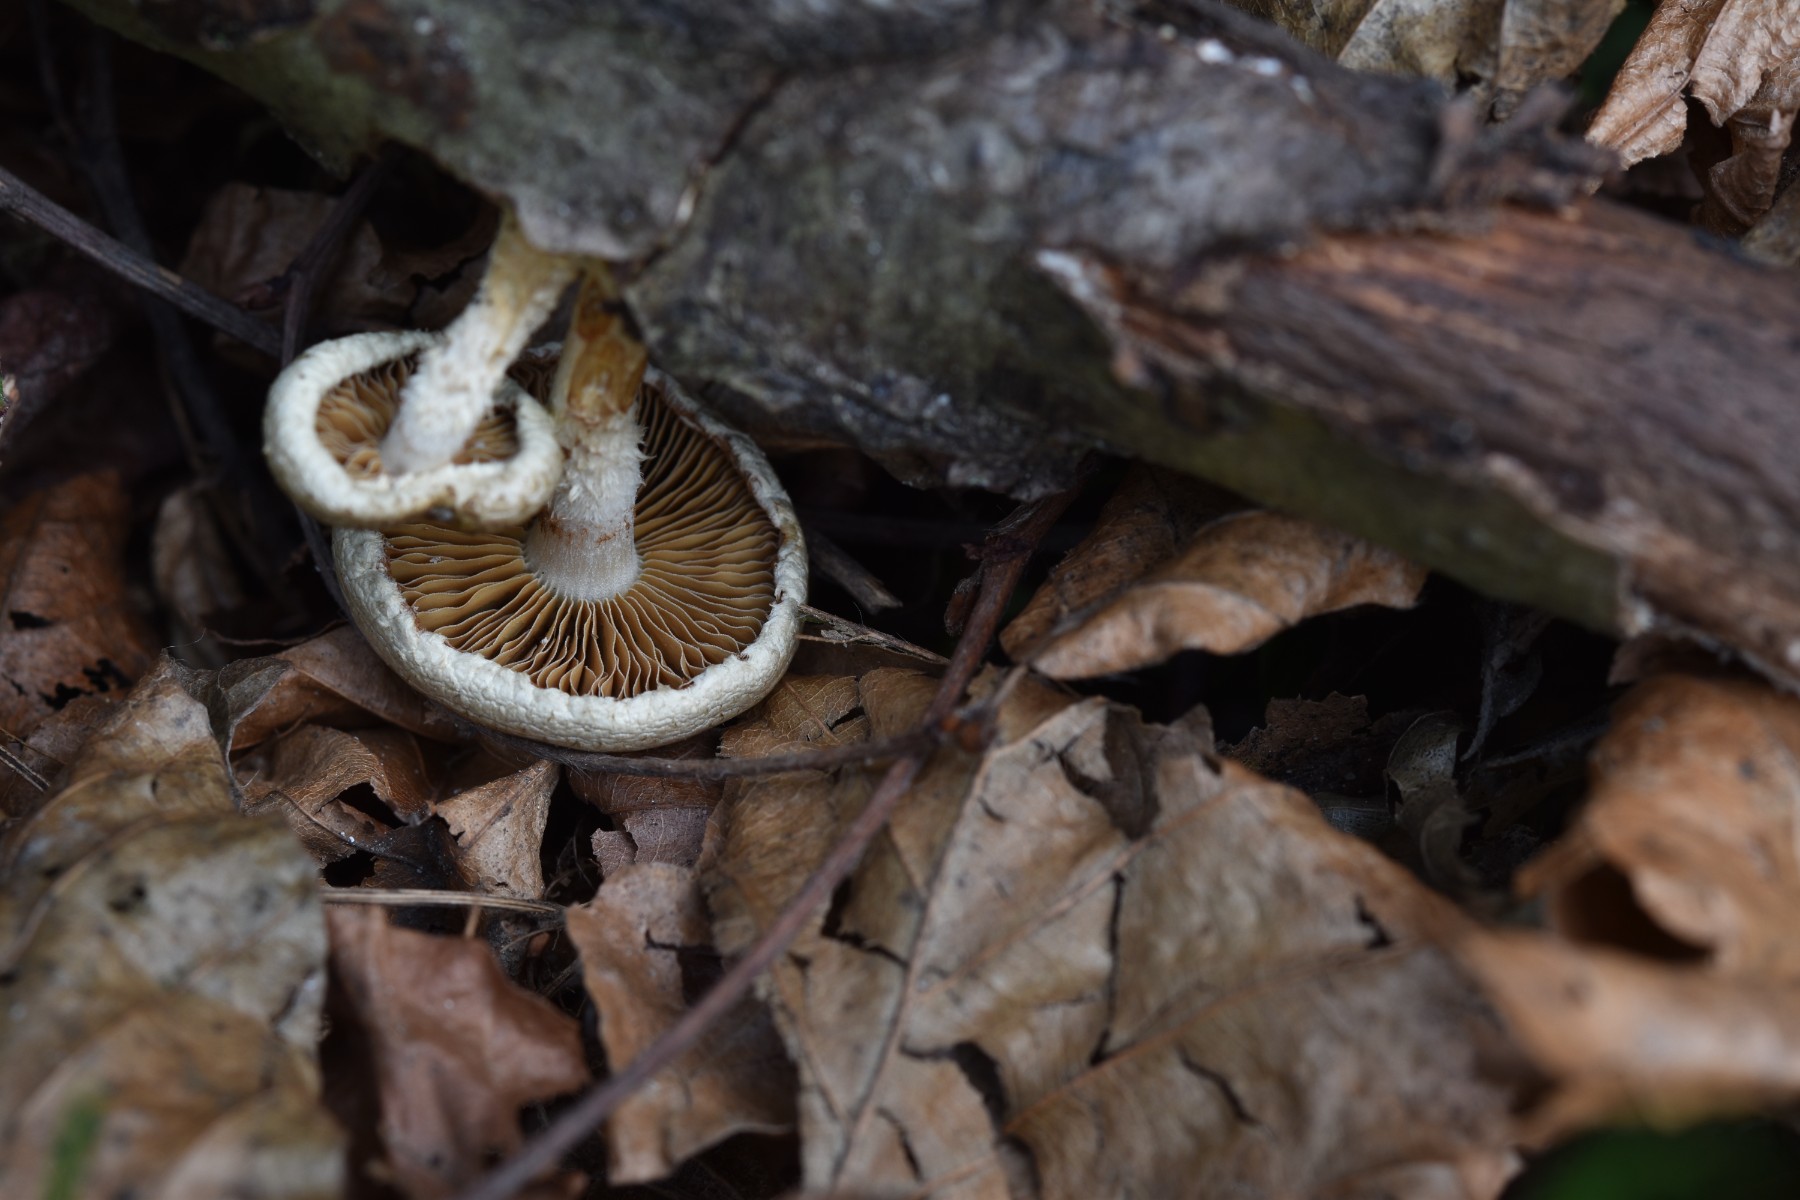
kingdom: Fungi
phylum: Basidiomycota
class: Agaricomycetes
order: Agaricales
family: Strophariaceae
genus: Pholiota
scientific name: Pholiota
